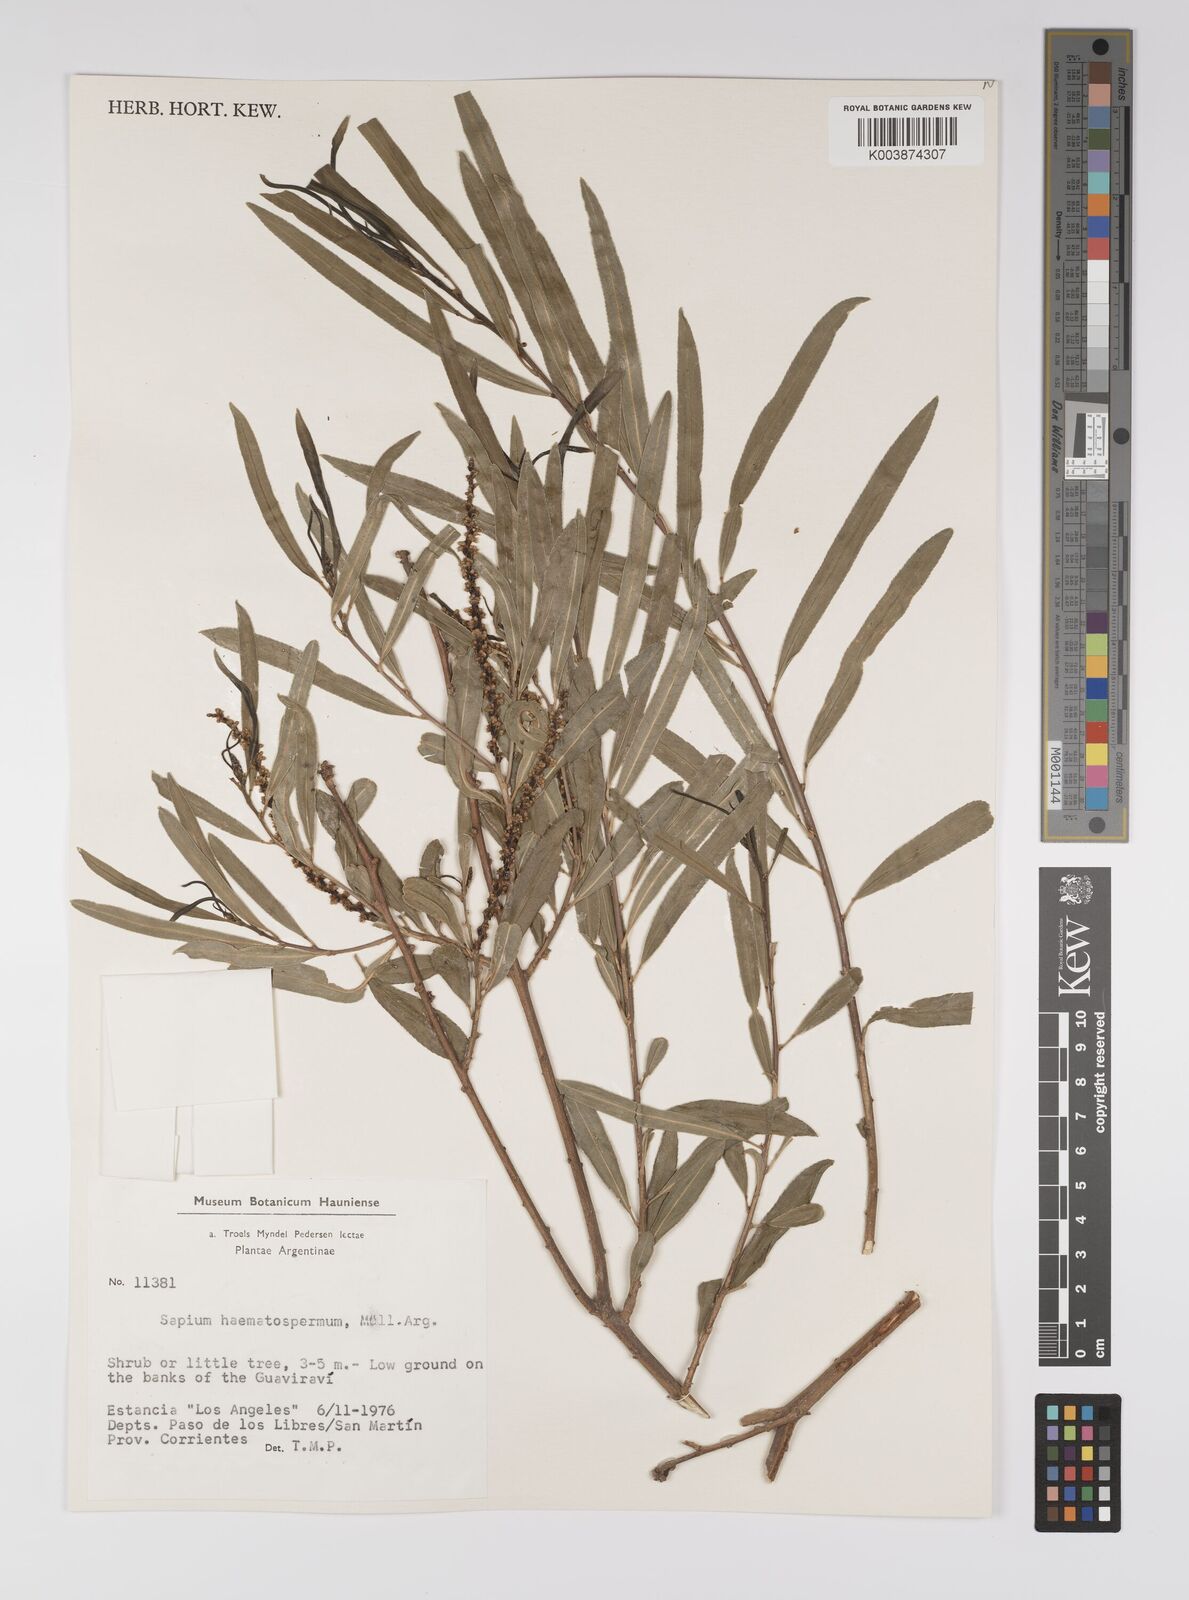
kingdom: Plantae
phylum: Tracheophyta
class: Magnoliopsida
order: Malpighiales
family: Euphorbiaceae
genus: Sapium
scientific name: Sapium haematospermum
